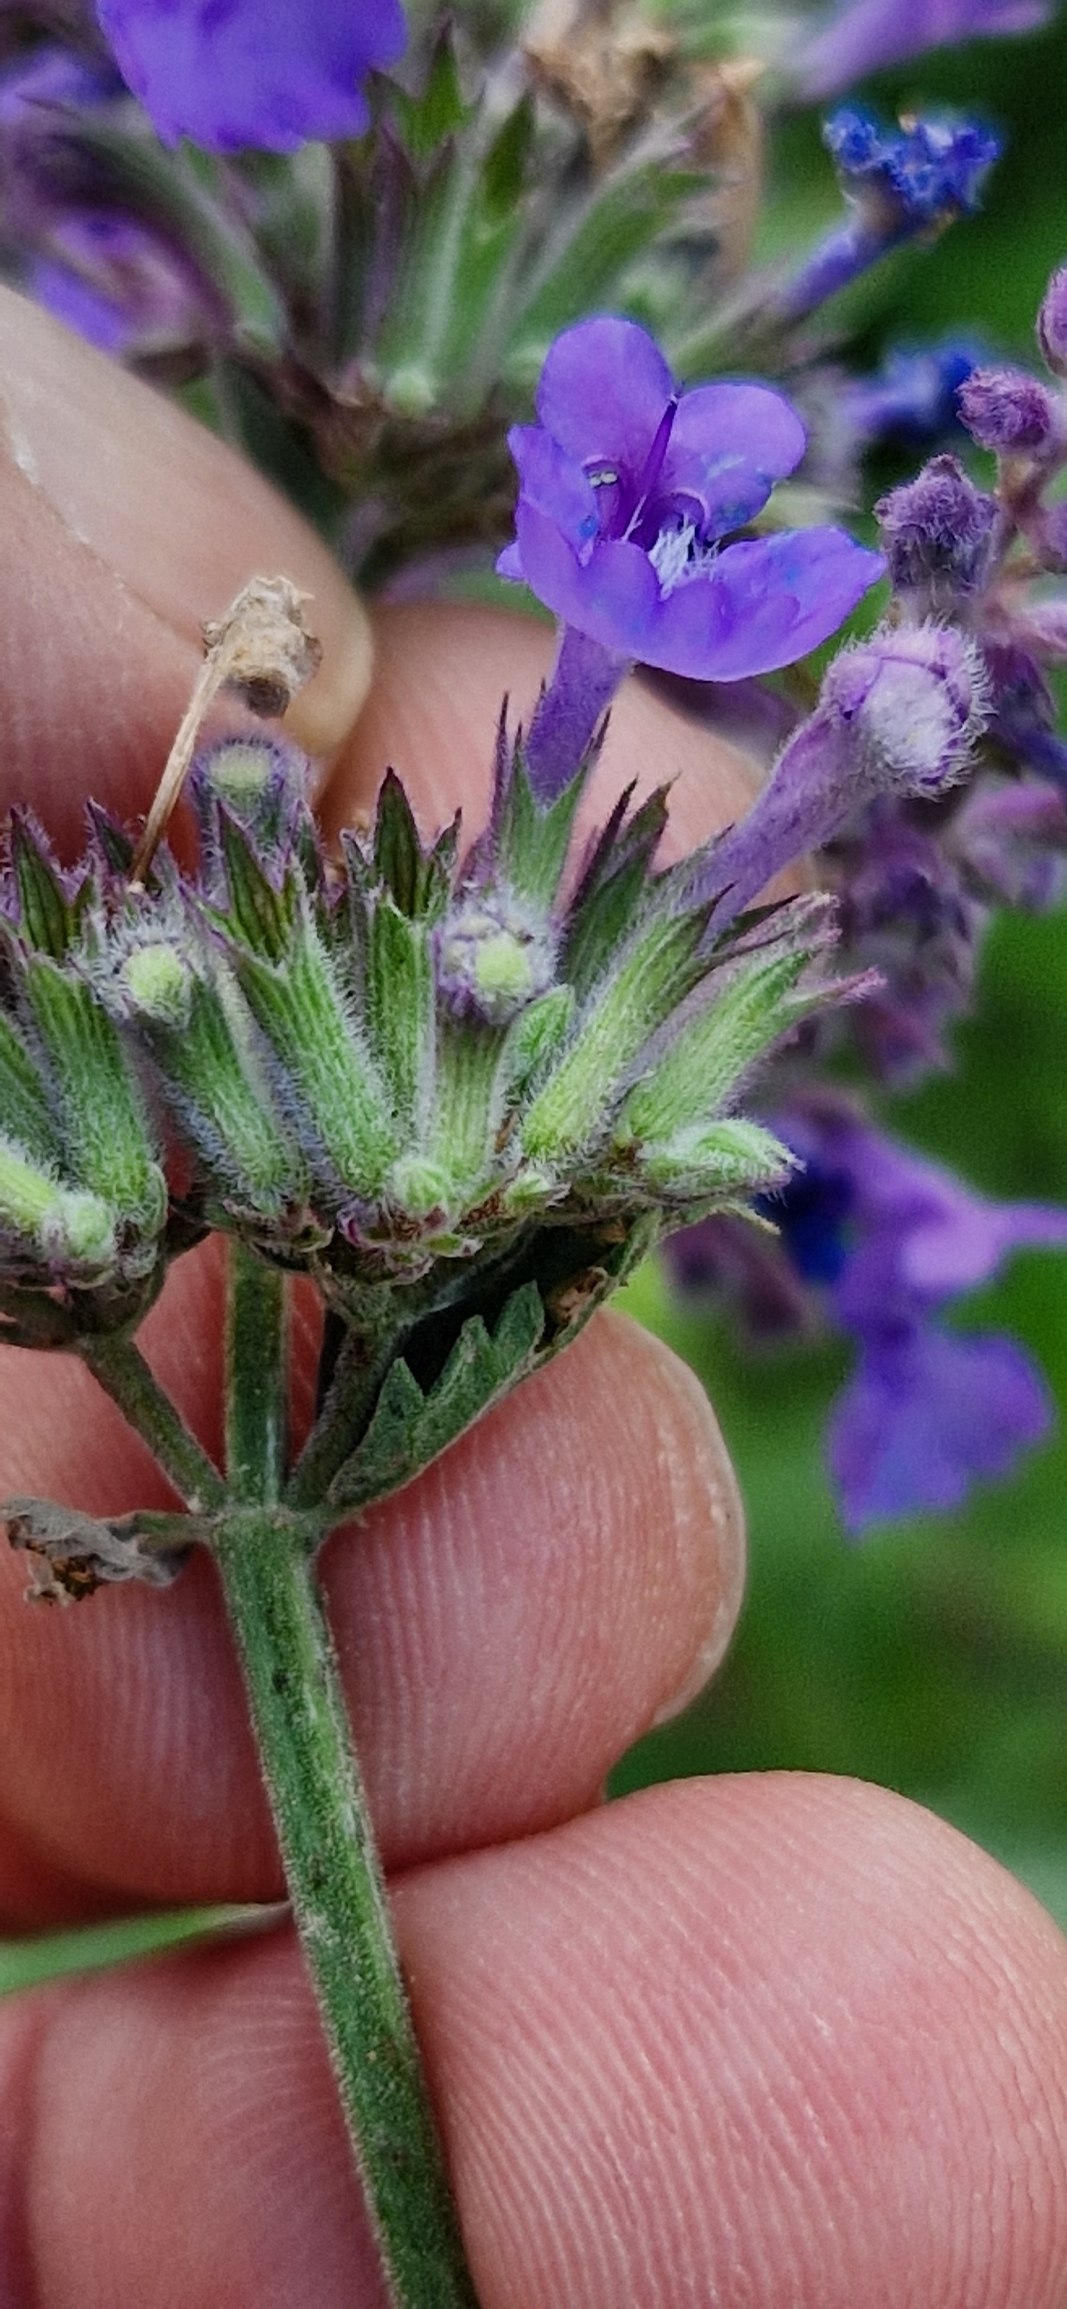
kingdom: Plantae
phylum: Tracheophyta
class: Magnoliopsida
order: Lamiales
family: Lamiaceae
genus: Nepeta
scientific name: Nepeta racemosa
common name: Ægte blåkant
